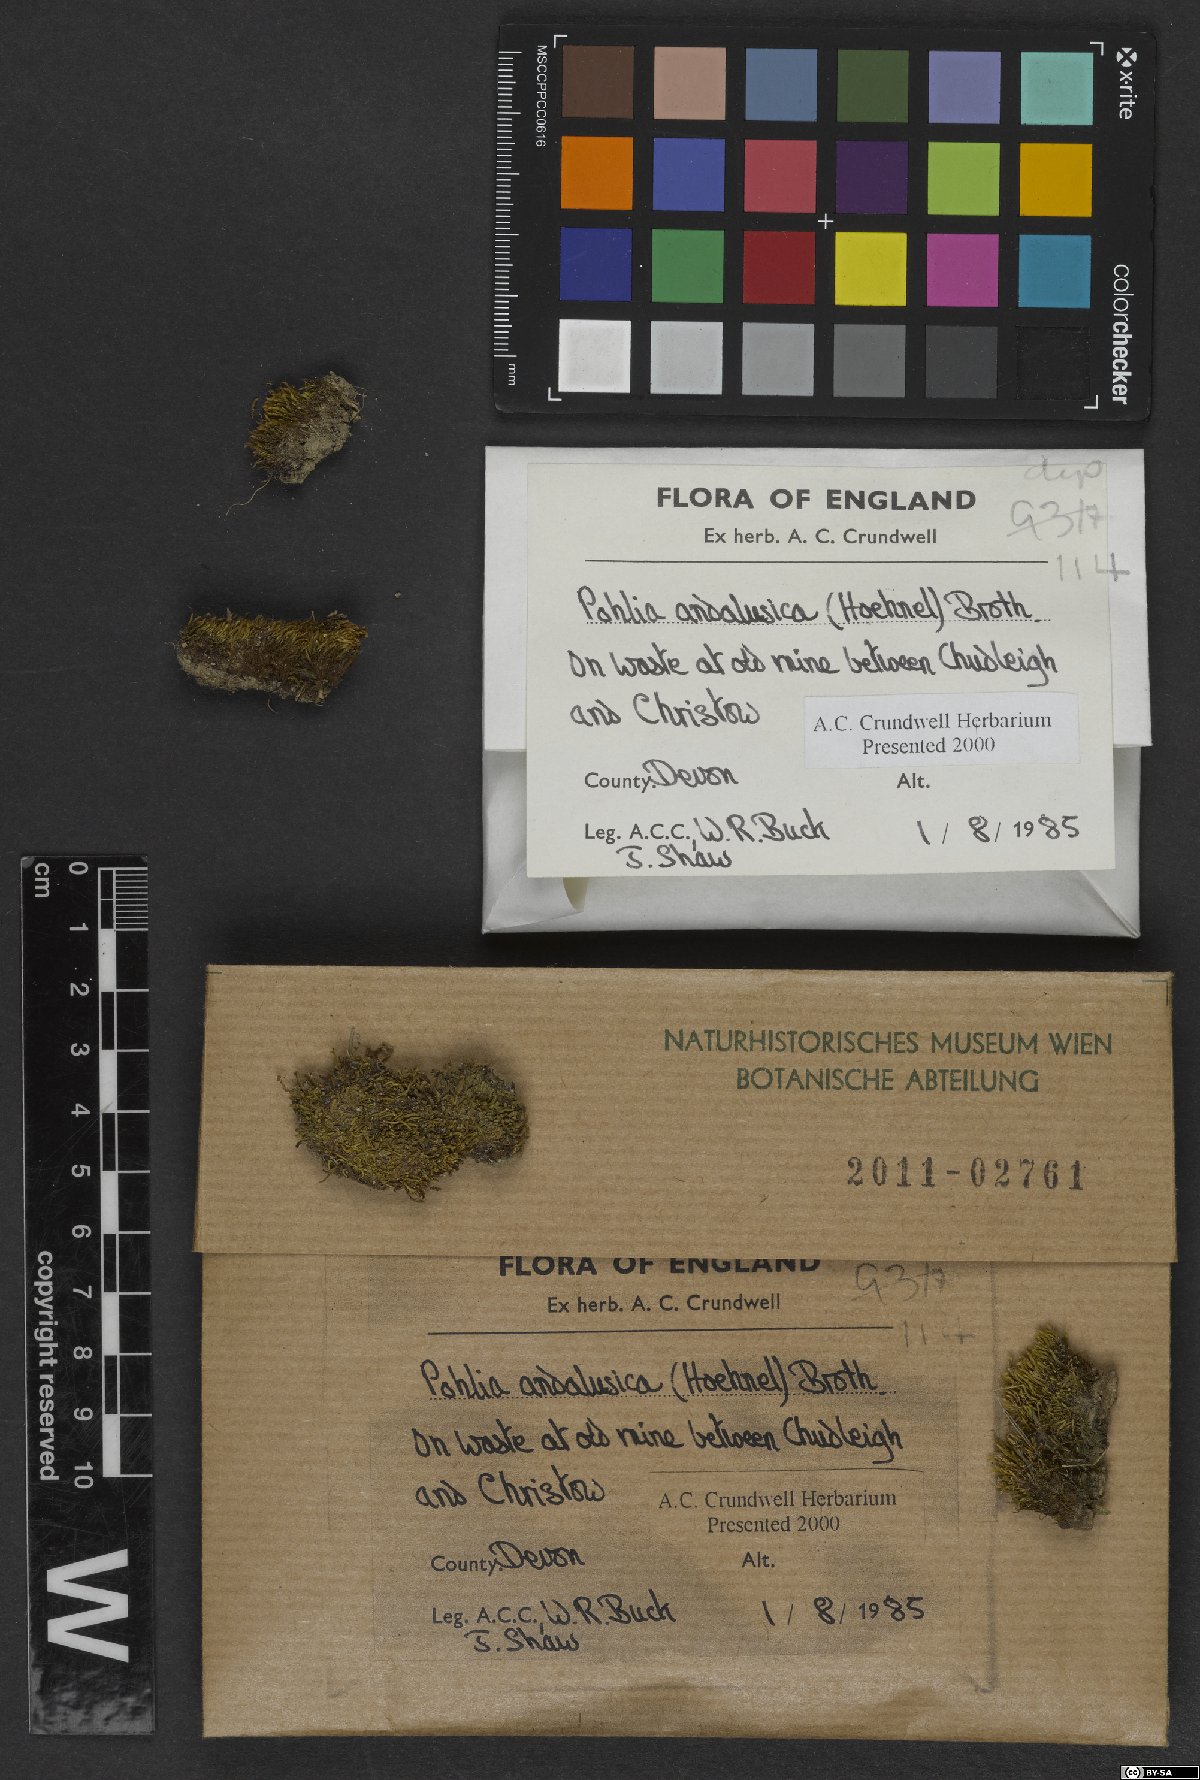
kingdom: Plantae
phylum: Bryophyta
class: Bryopsida
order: Bryales
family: Mniaceae
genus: Pohlia
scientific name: Pohlia andalusica
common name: Andalusian nodding moss
